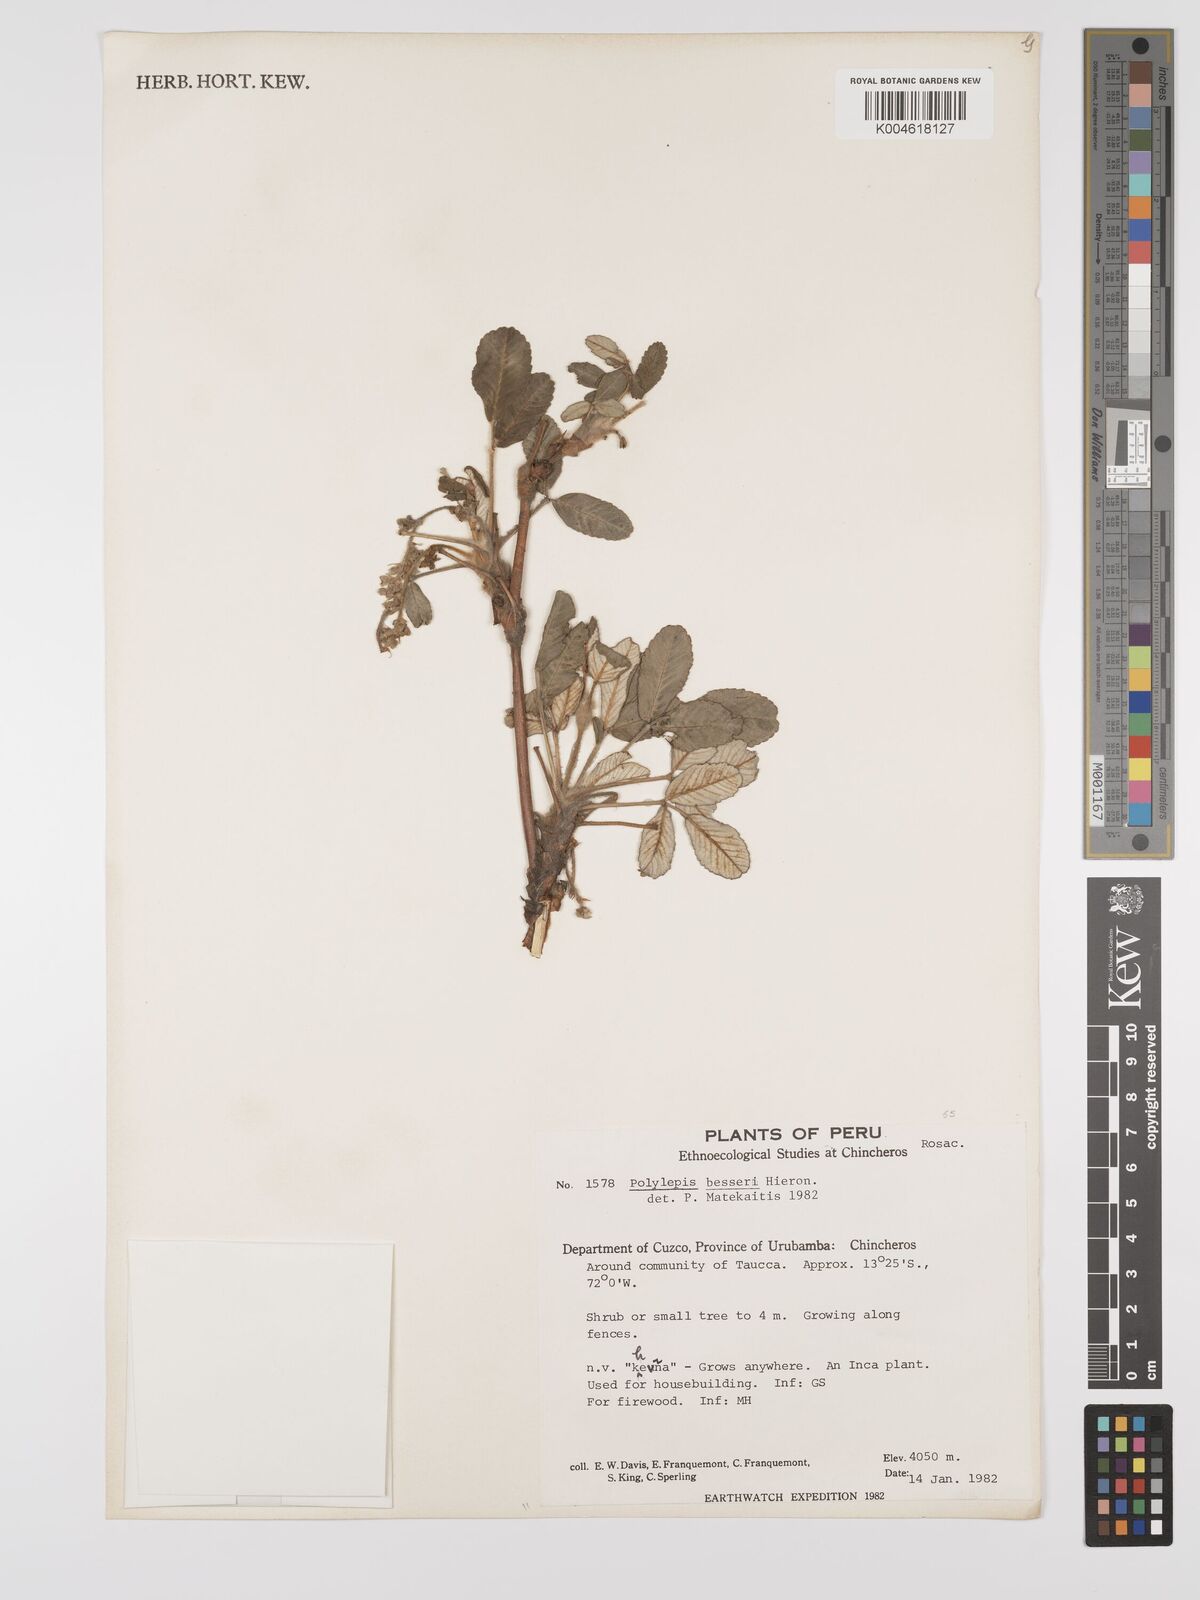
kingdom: Plantae
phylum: Tracheophyta
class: Magnoliopsida
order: Rosales
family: Rosaceae
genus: Polylepis
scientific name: Polylepis
